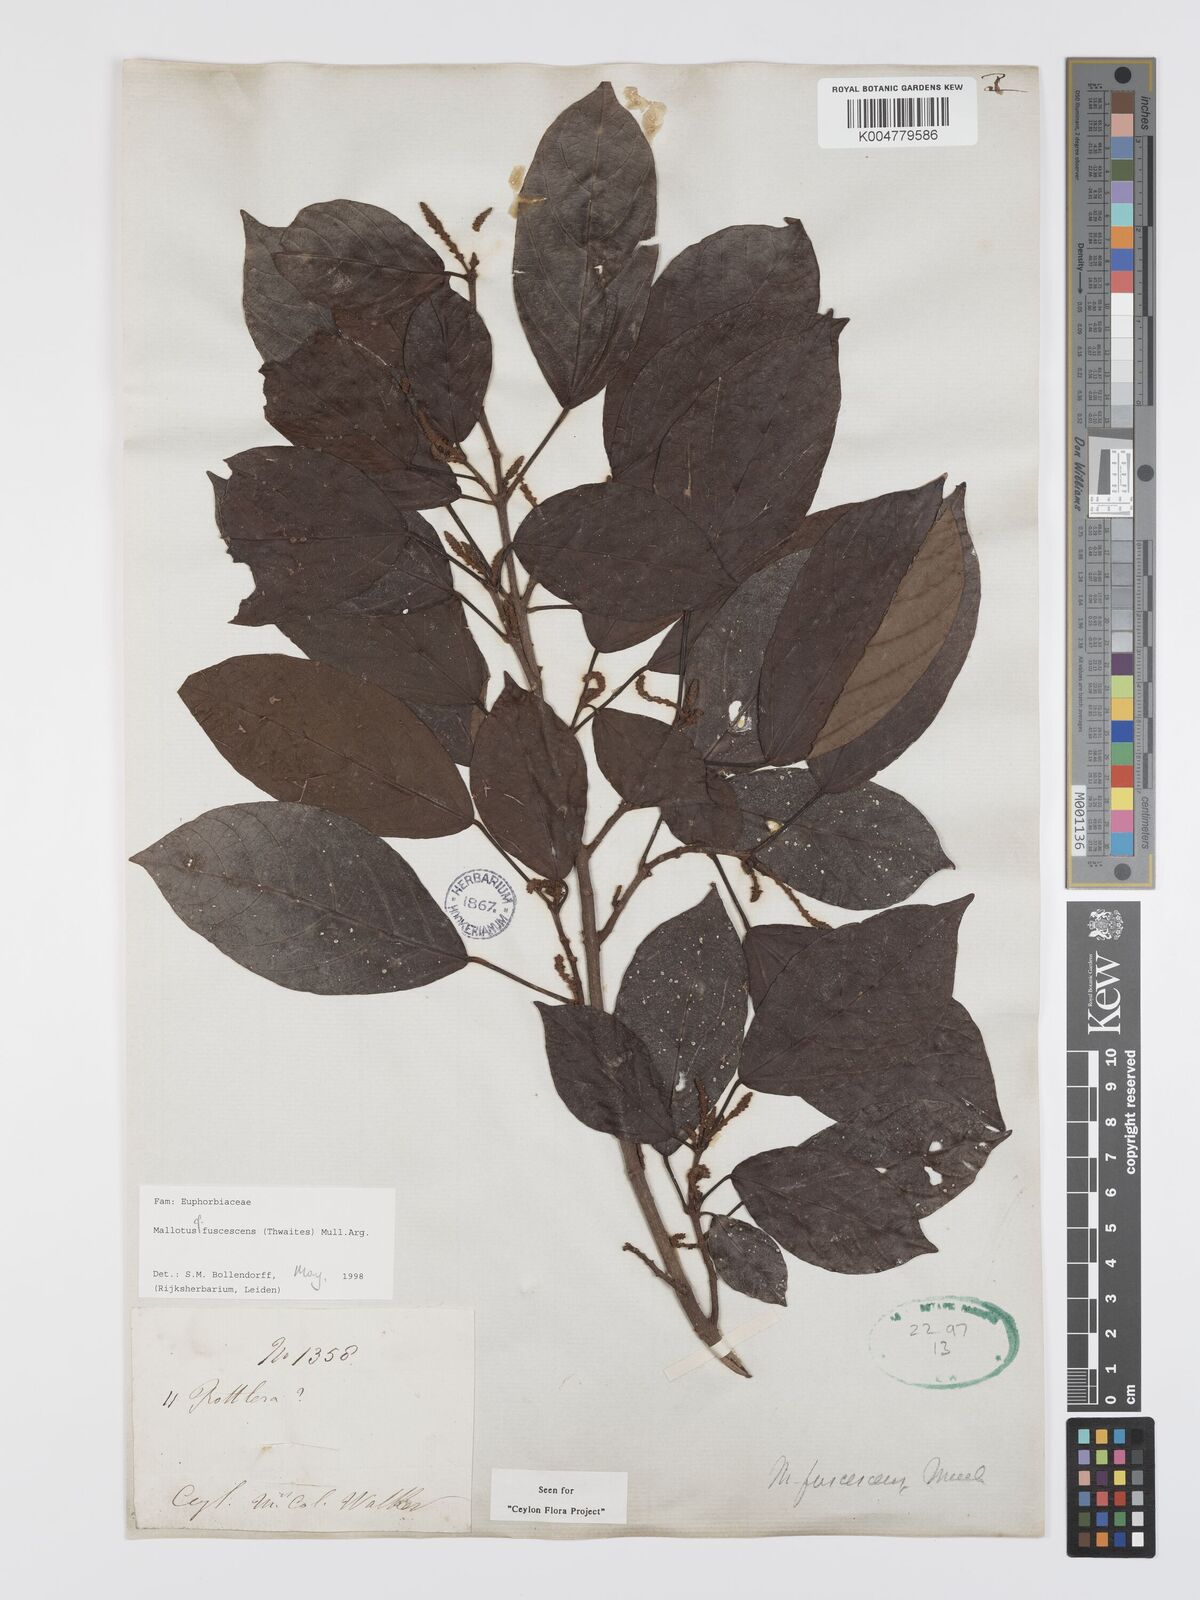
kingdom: Plantae
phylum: Tracheophyta
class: Magnoliopsida
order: Malpighiales
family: Euphorbiaceae
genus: Mallotus
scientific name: Mallotus fuscescens
